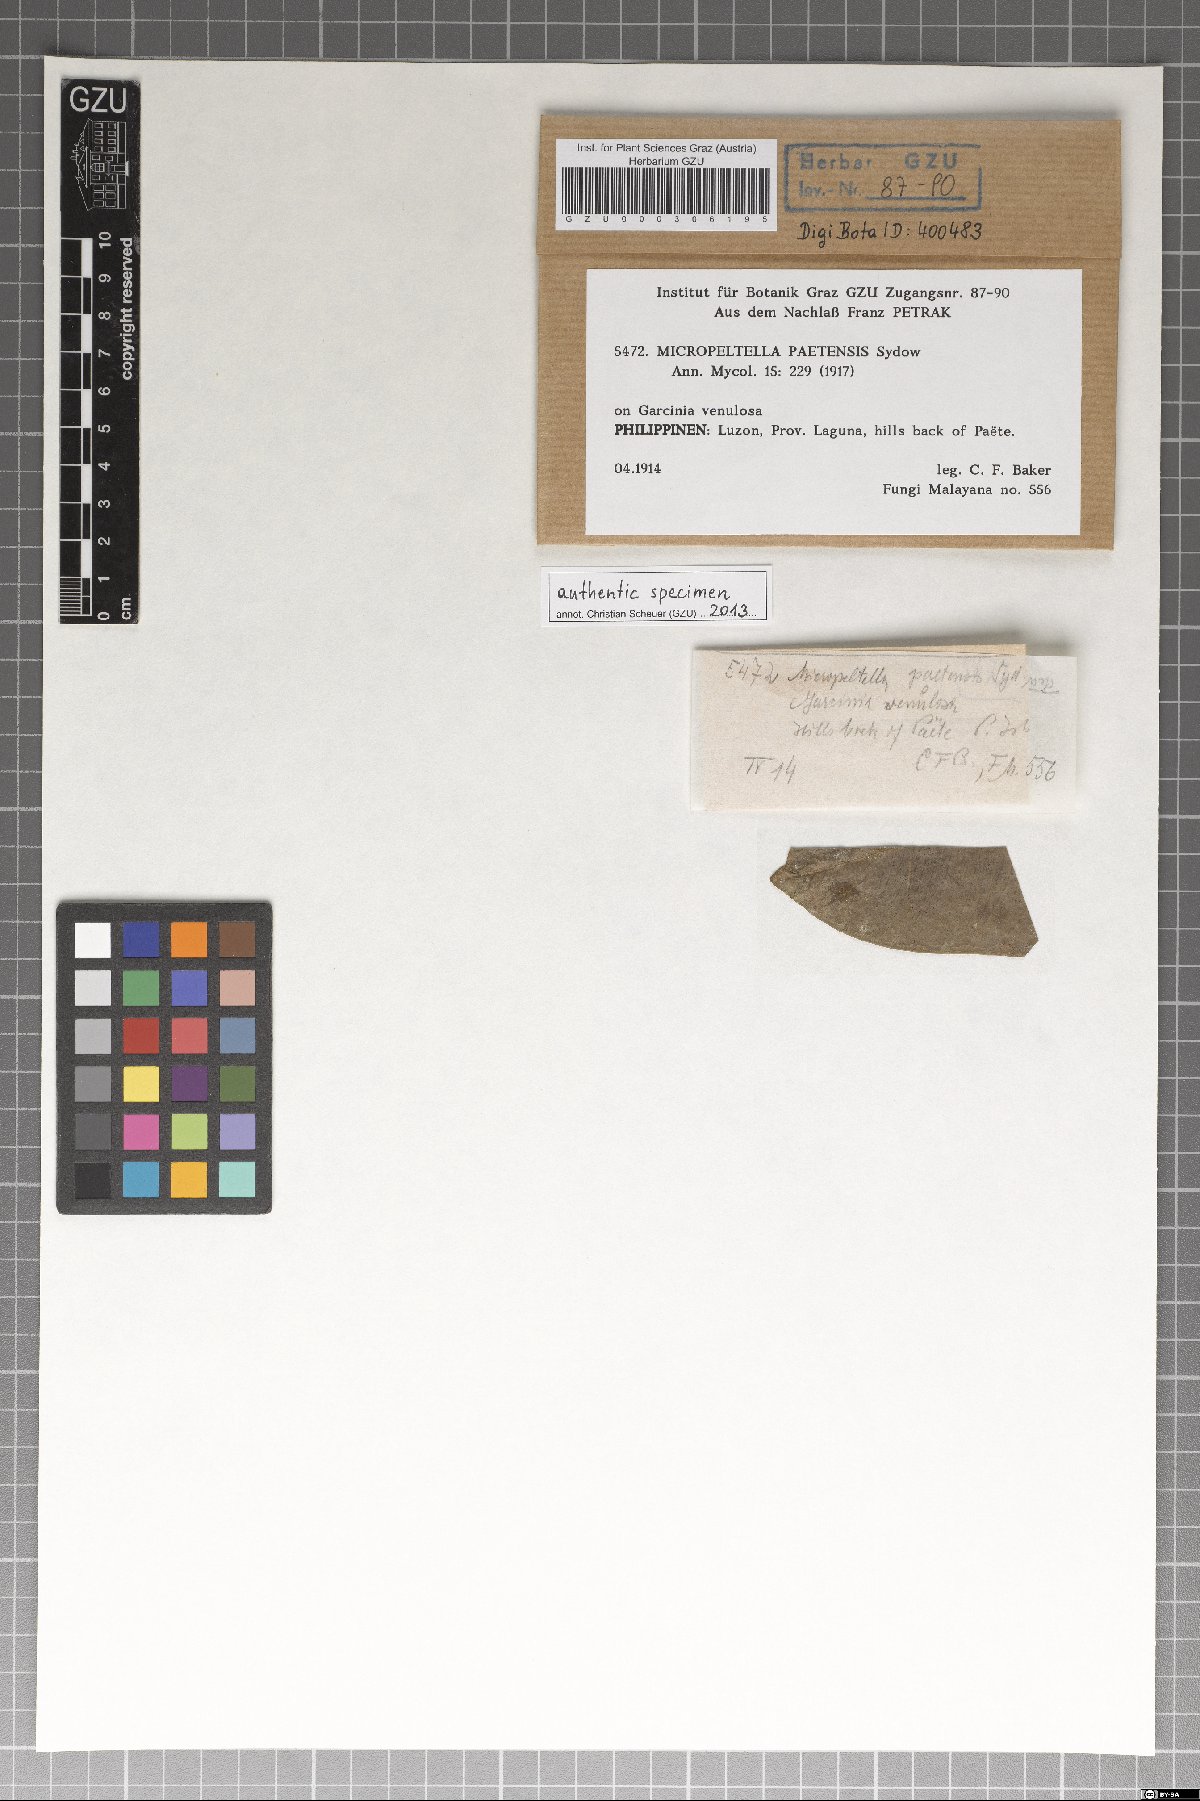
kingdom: Fungi
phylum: Ascomycota
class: Dothideomycetes
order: Microthyriales
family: Micropeltidaceae
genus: Micropeltella
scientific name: Micropeltella paetensis
